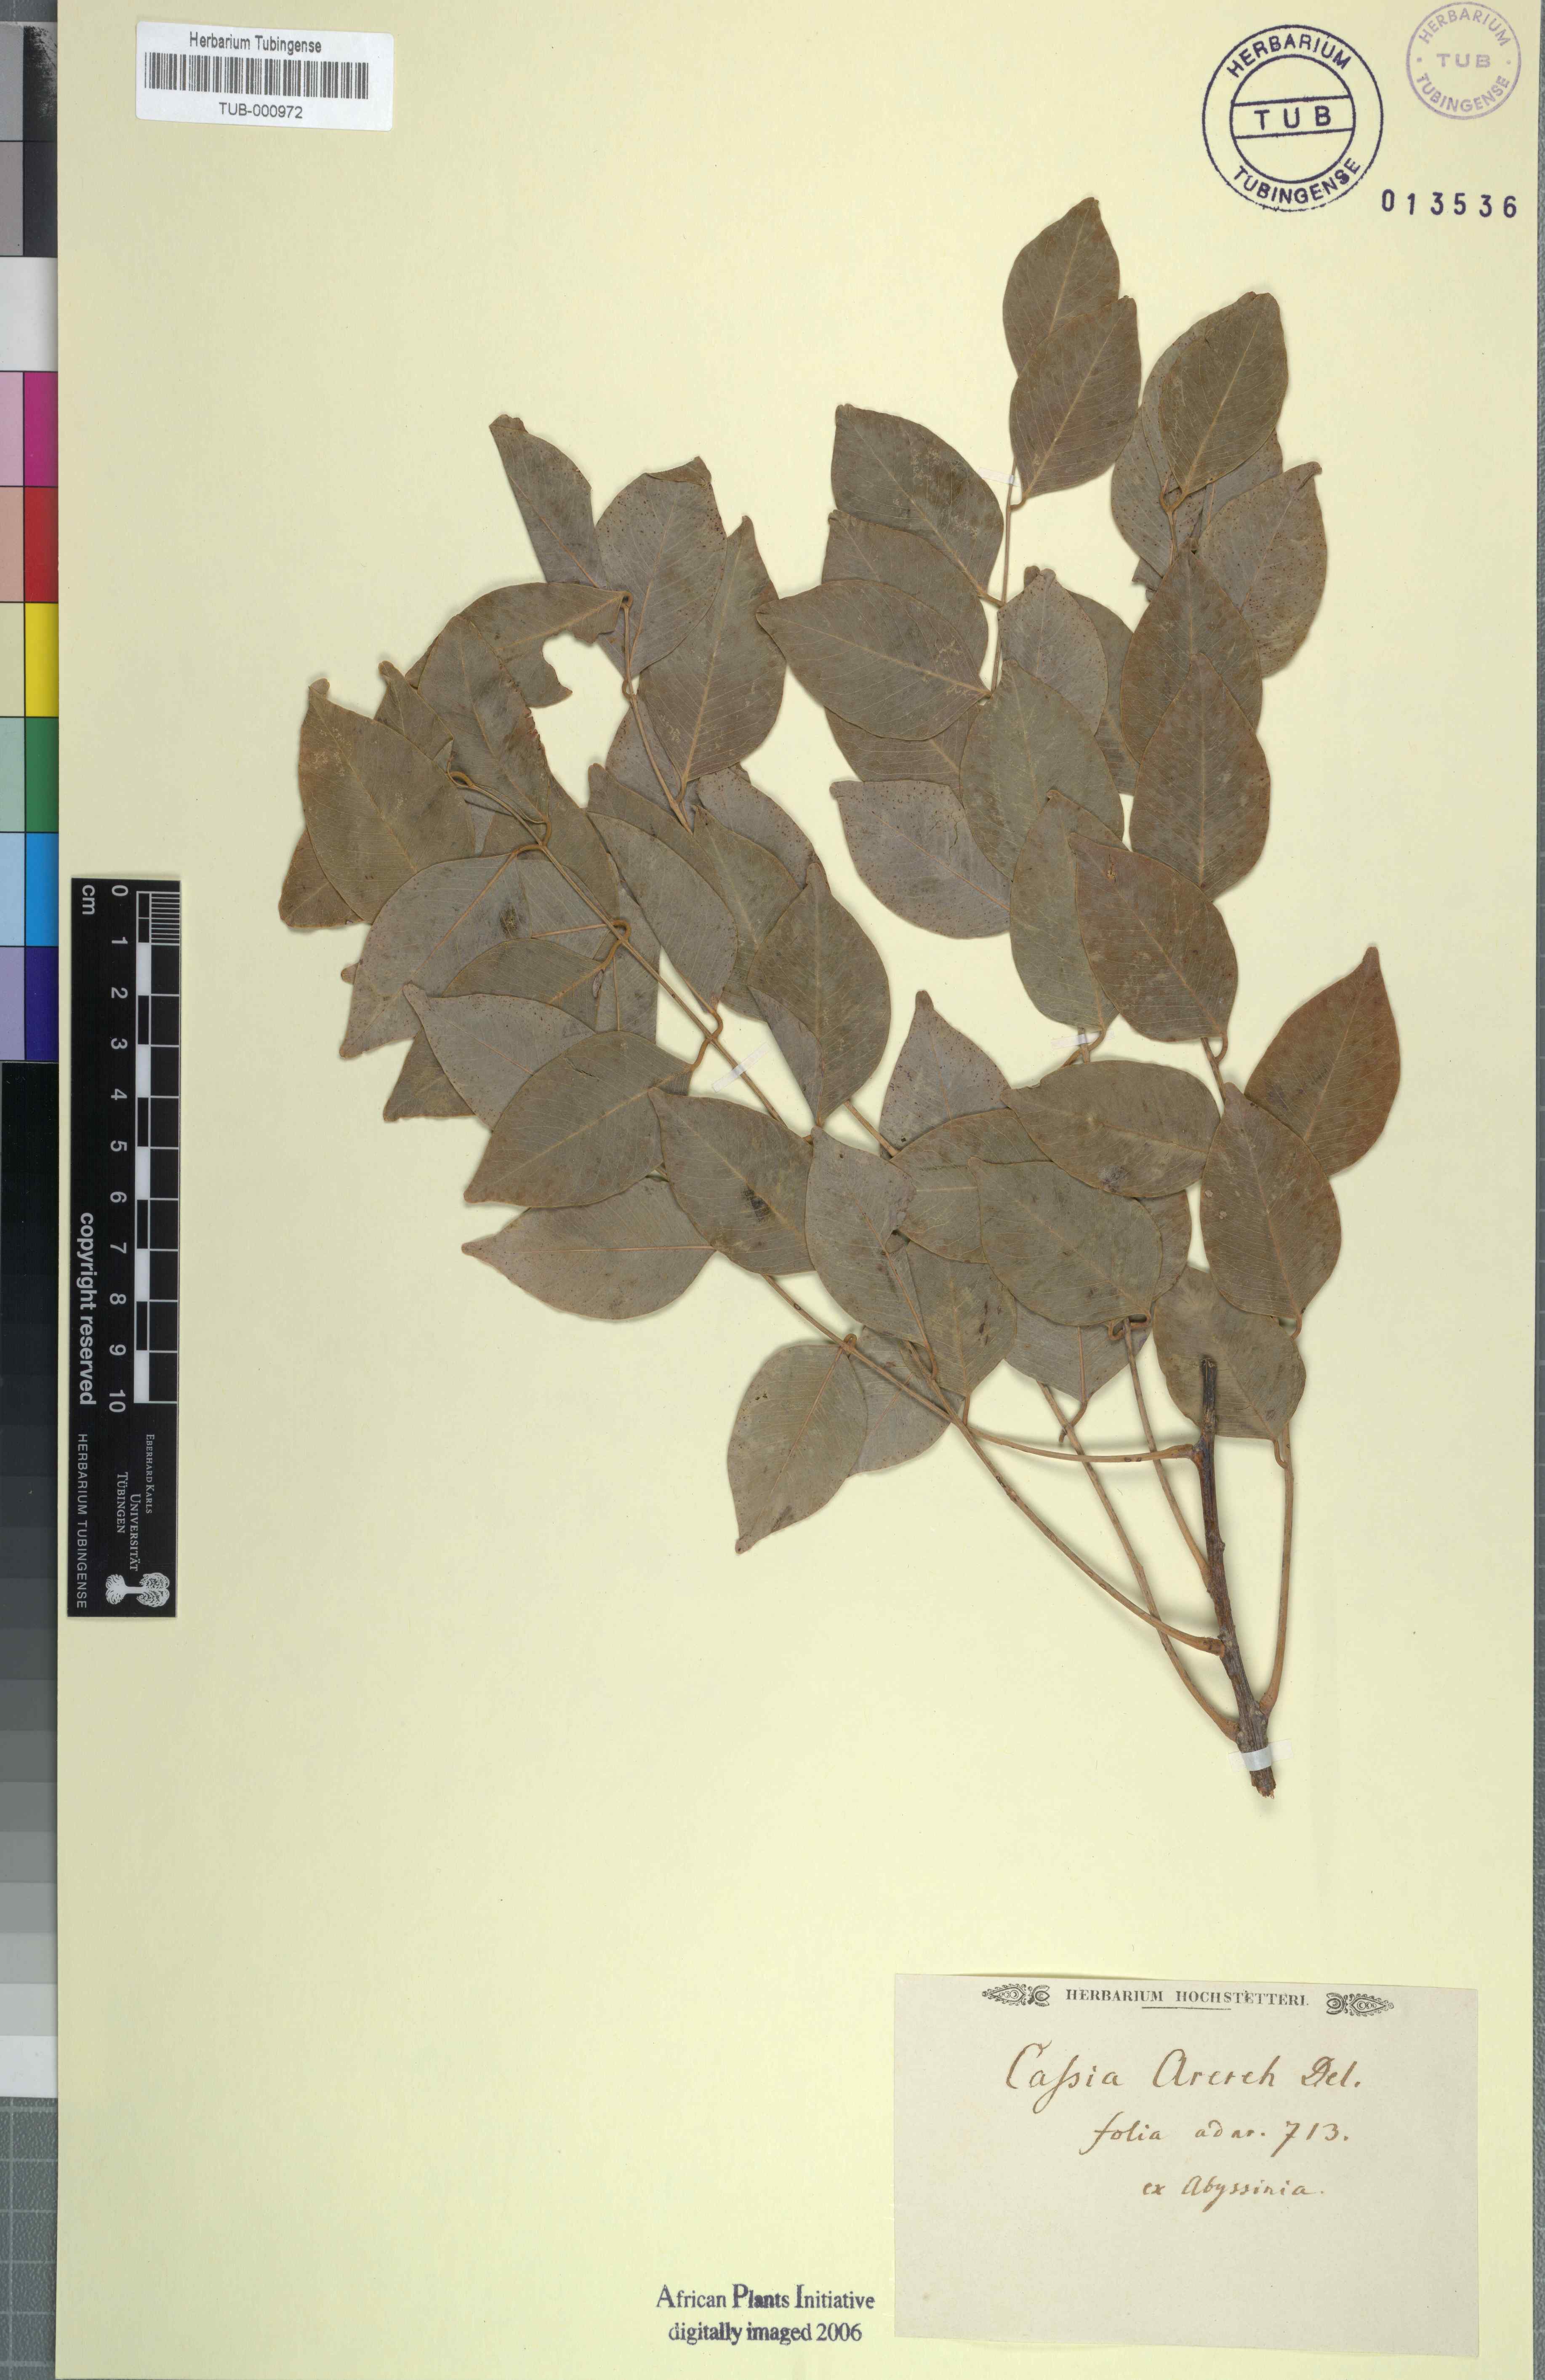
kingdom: Plantae
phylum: Tracheophyta
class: Magnoliopsida
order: Fabales
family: Fabaceae
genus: Cassia
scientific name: Cassia arereh
